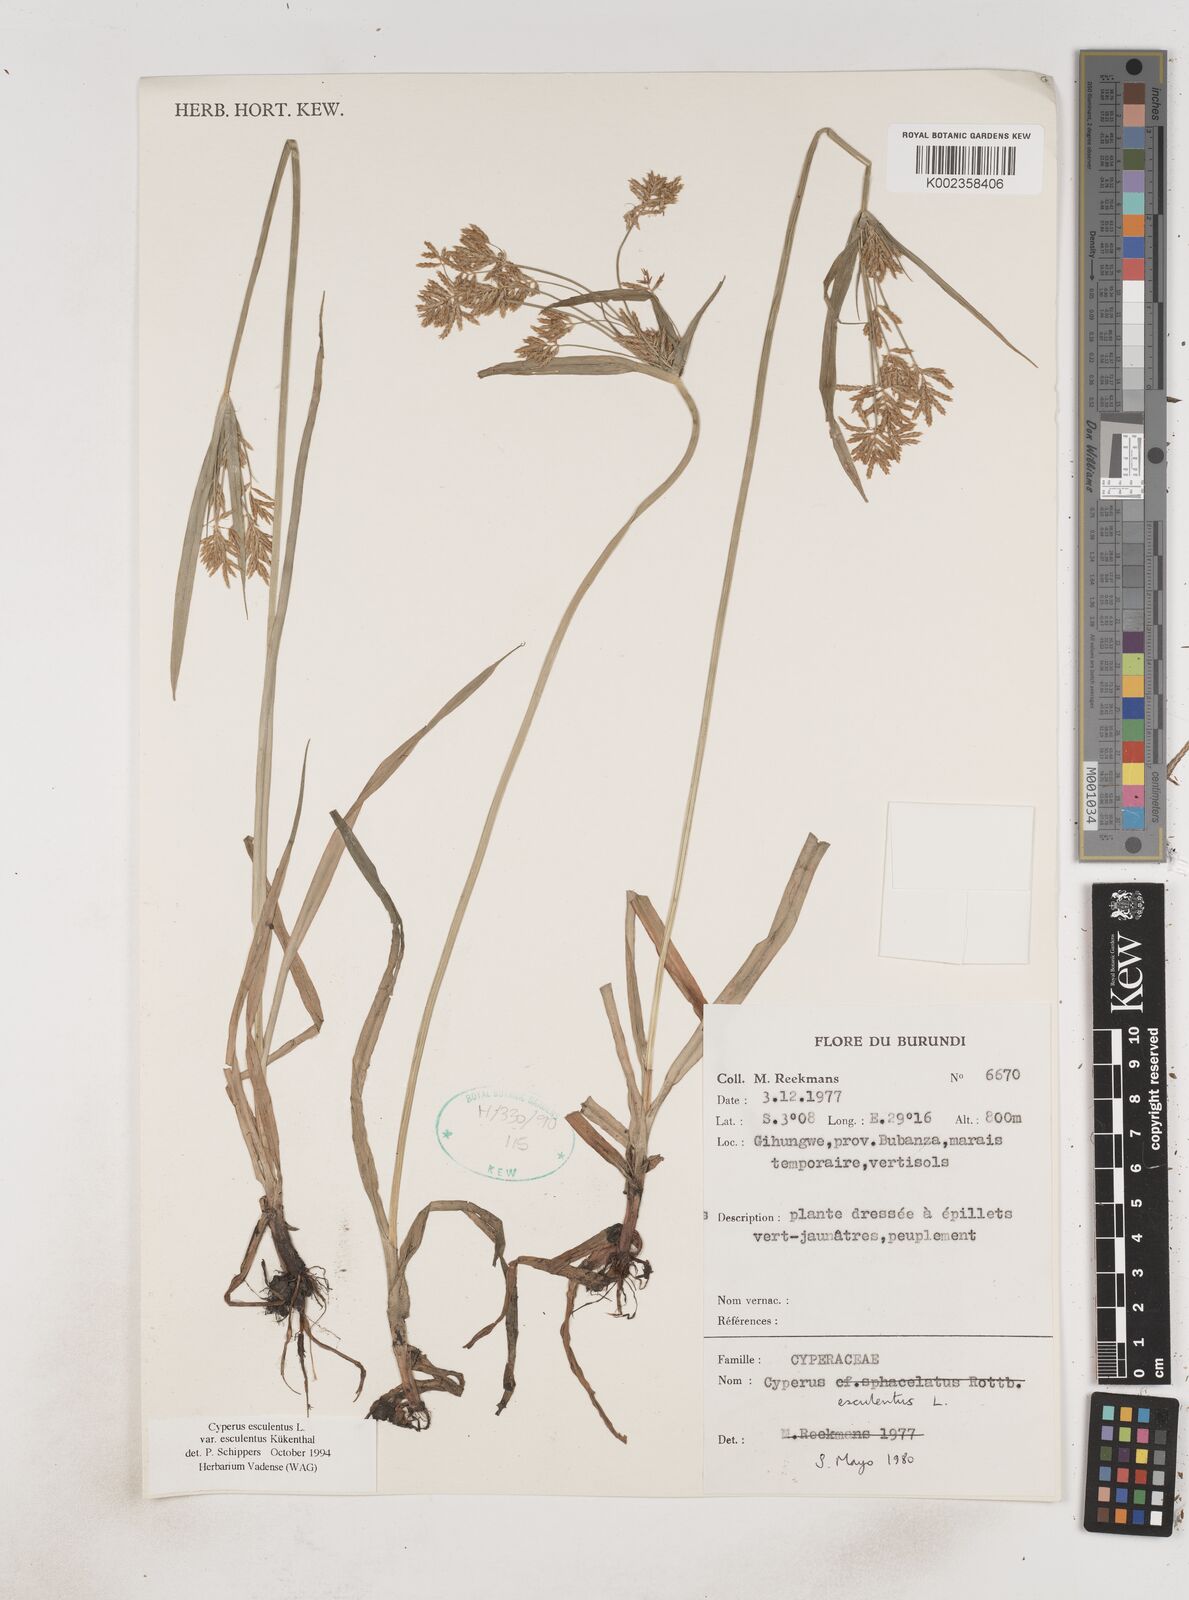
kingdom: Plantae
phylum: Tracheophyta
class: Liliopsida
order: Poales
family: Cyperaceae
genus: Cyperus
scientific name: Cyperus esculentus
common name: Yellow nutsedge
